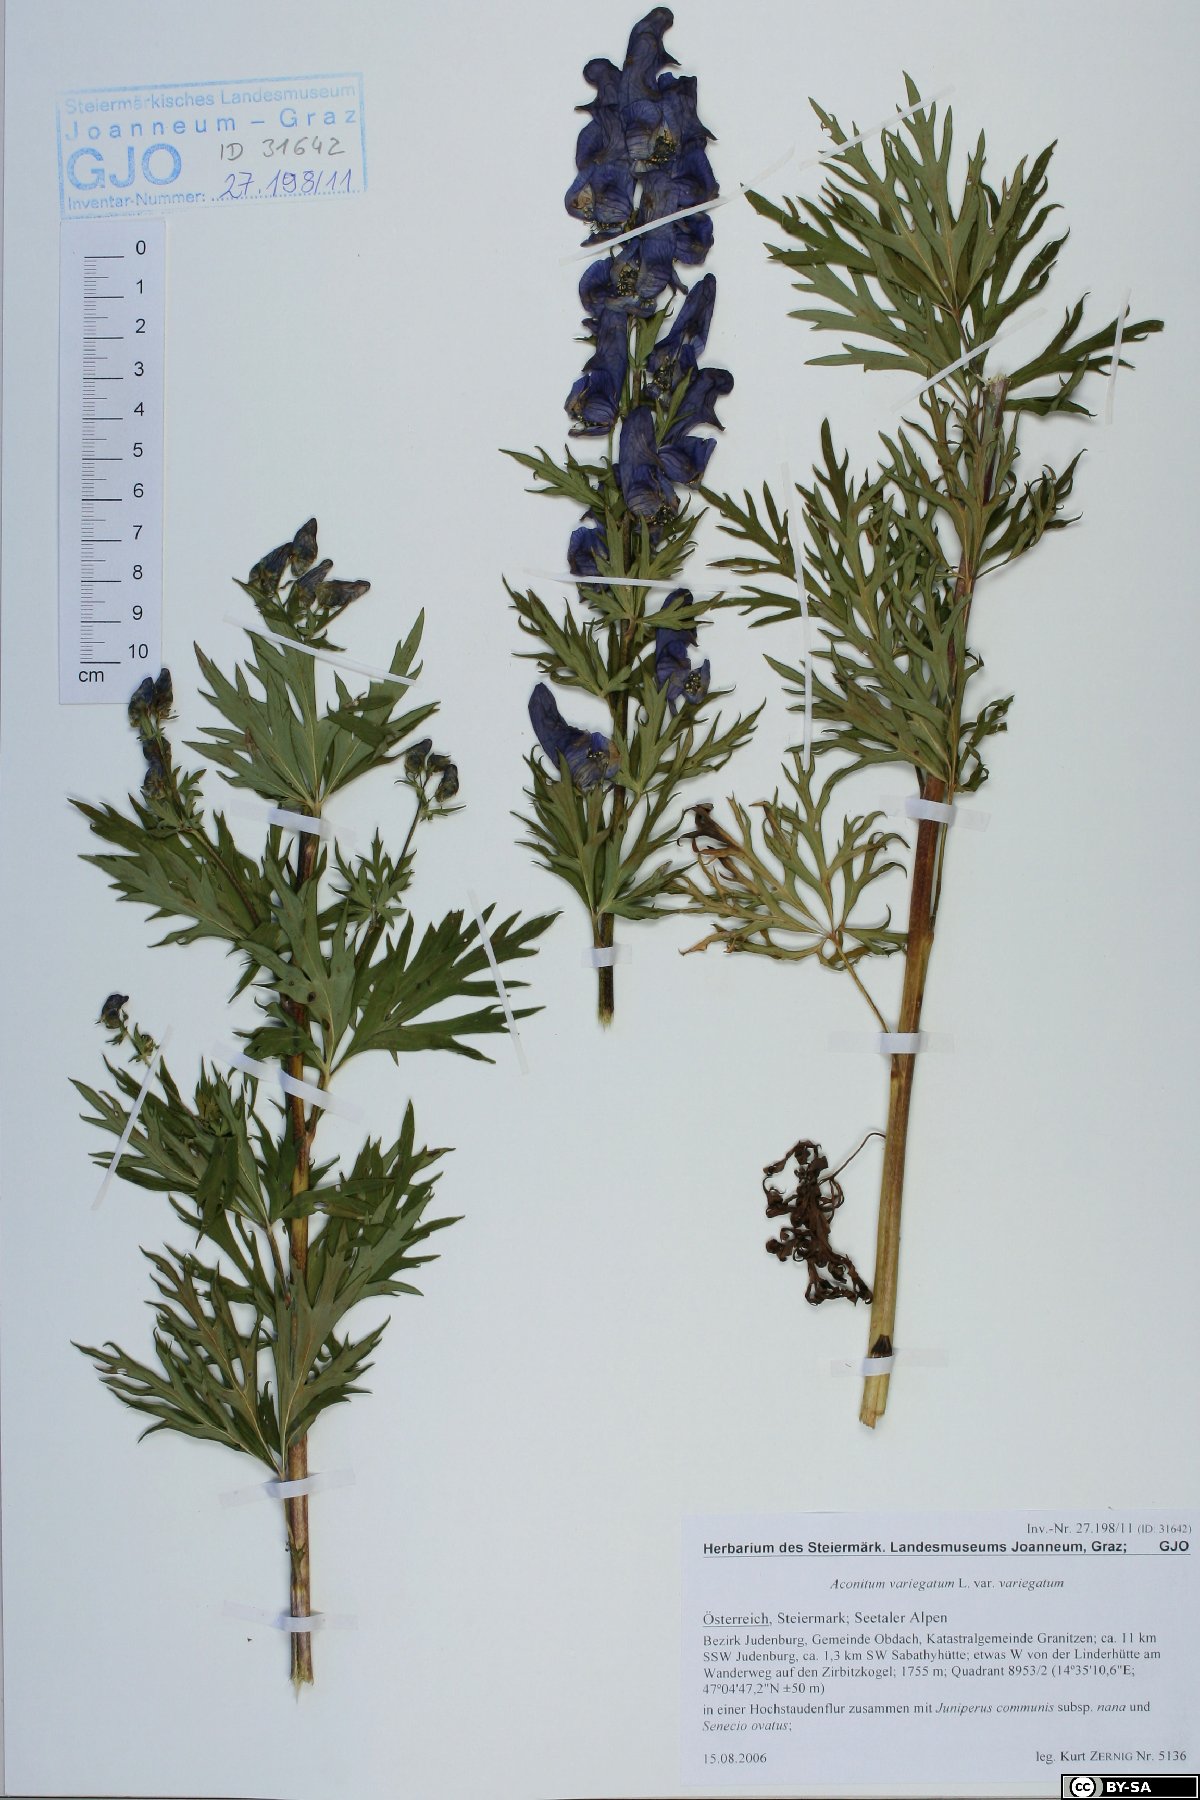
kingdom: Plantae
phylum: Tracheophyta
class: Magnoliopsida
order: Ranunculales
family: Ranunculaceae
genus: Aconitum
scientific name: Aconitum variegatum
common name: Manchurian monkshood
